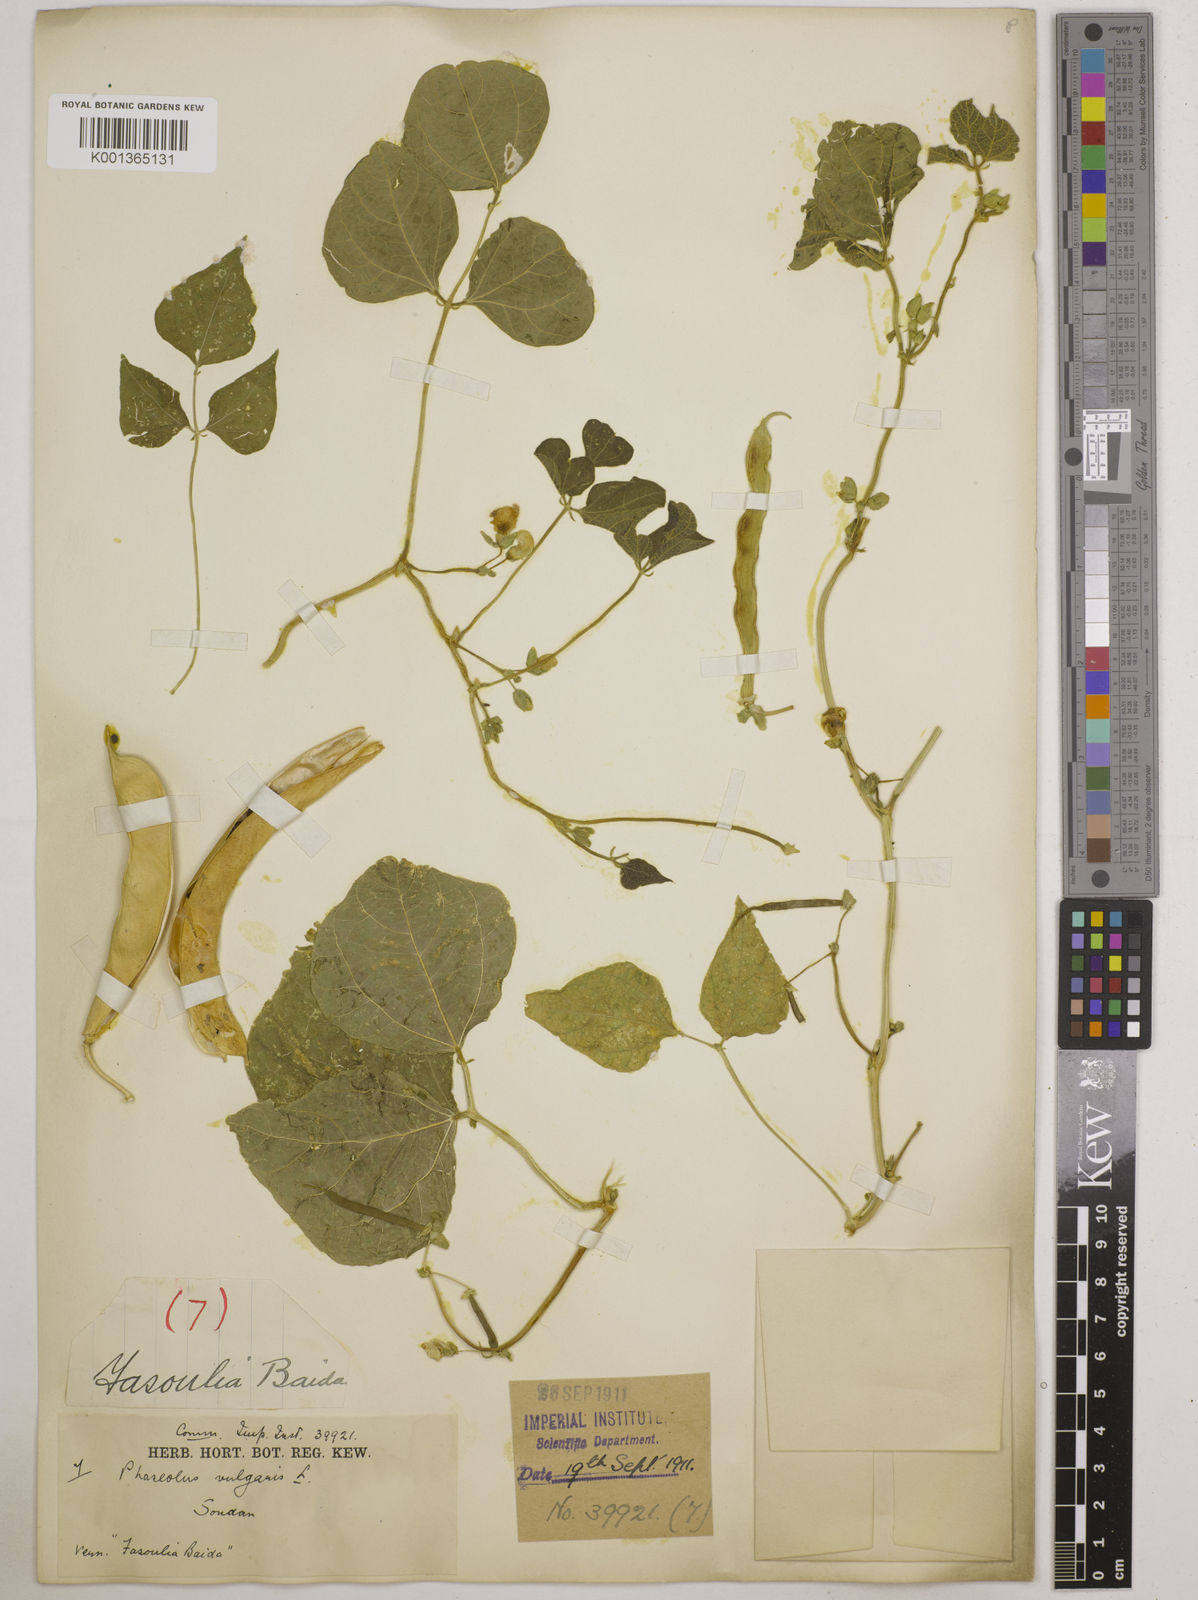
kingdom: Plantae
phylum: Tracheophyta
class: Magnoliopsida
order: Fabales
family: Fabaceae
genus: Phaseolus
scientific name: Phaseolus vulgaris
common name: Bean
